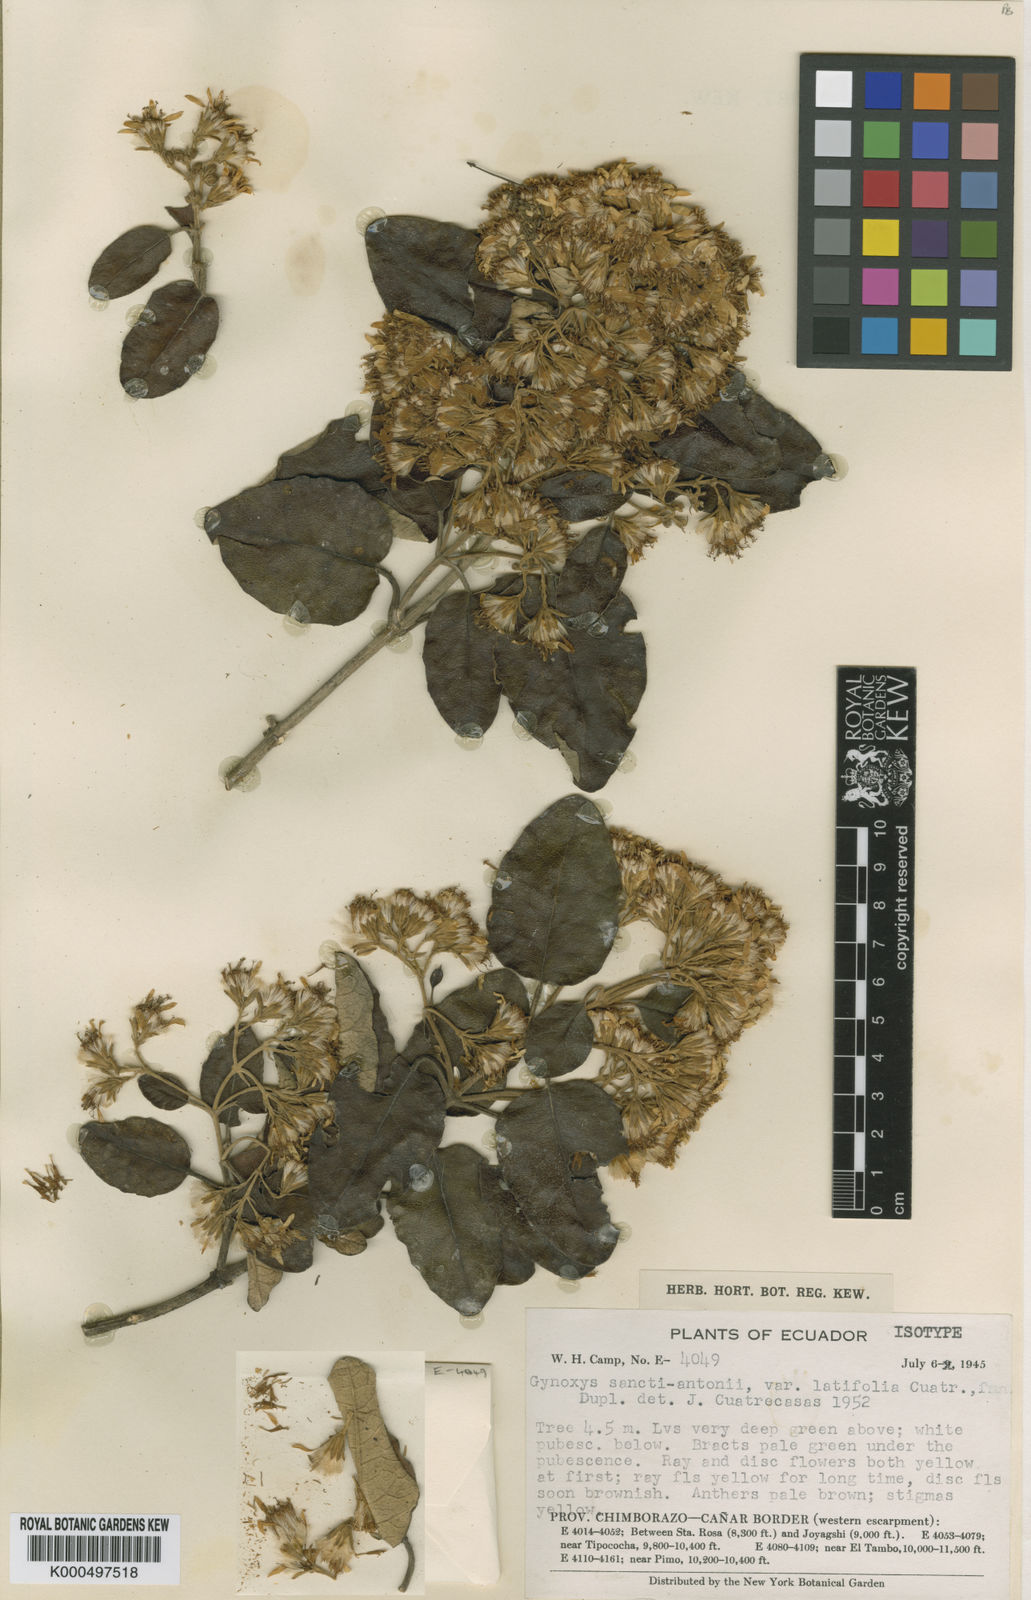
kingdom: Plantae
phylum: Tracheophyta
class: Magnoliopsida
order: Asterales
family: Asteraceae
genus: Gynoxys
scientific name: Gynoxys sancti-antonii
